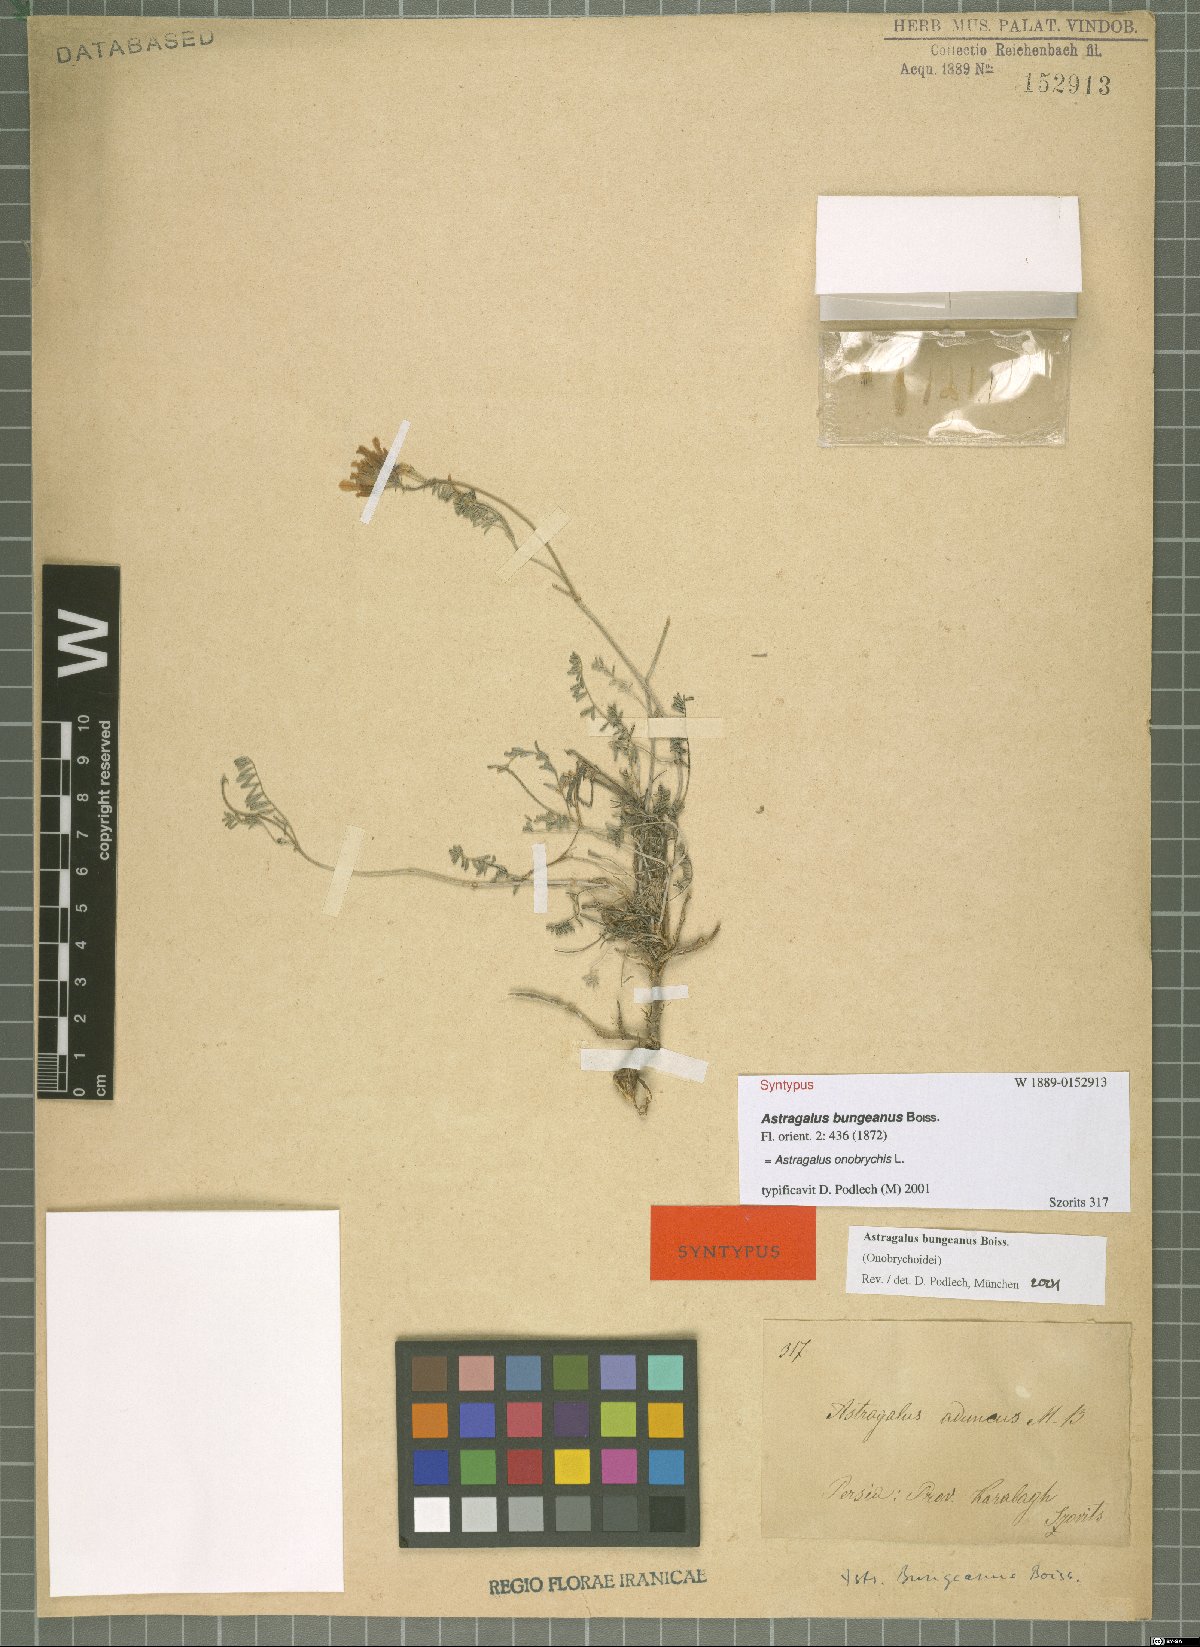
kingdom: Plantae
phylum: Tracheophyta
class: Magnoliopsida
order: Fabales
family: Fabaceae
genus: Astragalus
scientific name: Astragalus onobrychis
